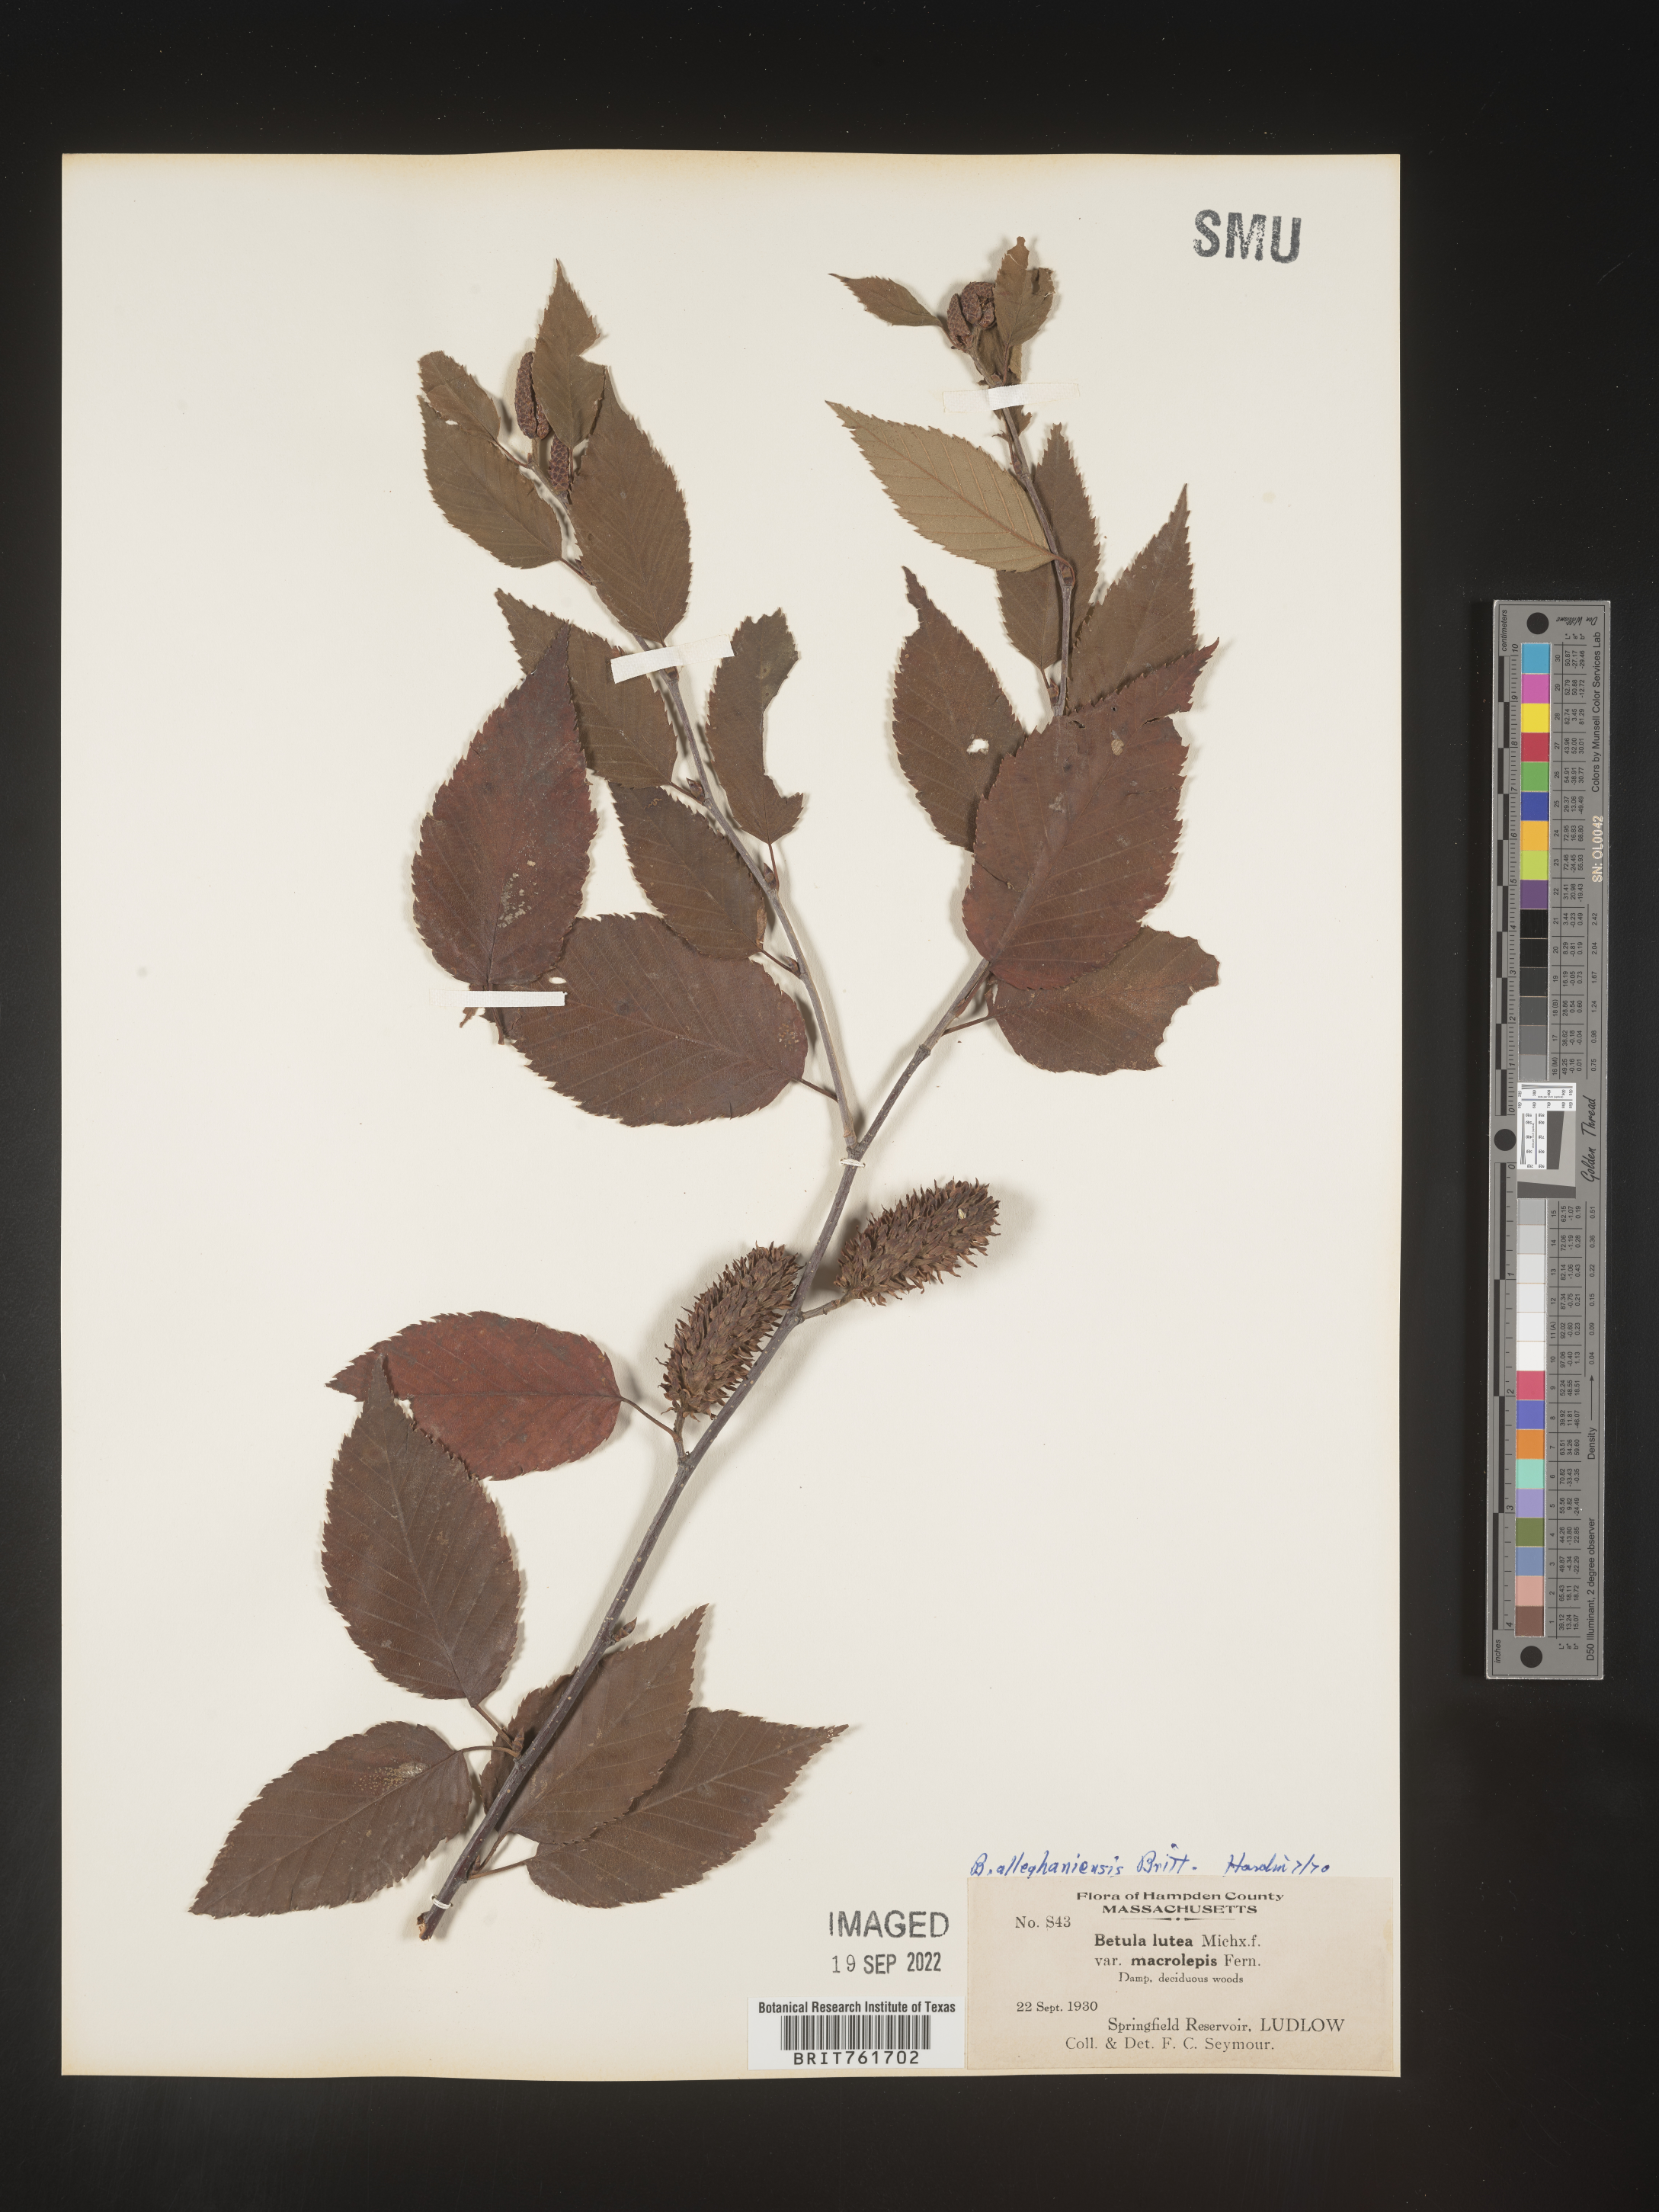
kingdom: Plantae
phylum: Tracheophyta
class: Magnoliopsida
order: Fagales
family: Betulaceae
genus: Betula
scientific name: Betula alleghaniensis
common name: Yellow birch
